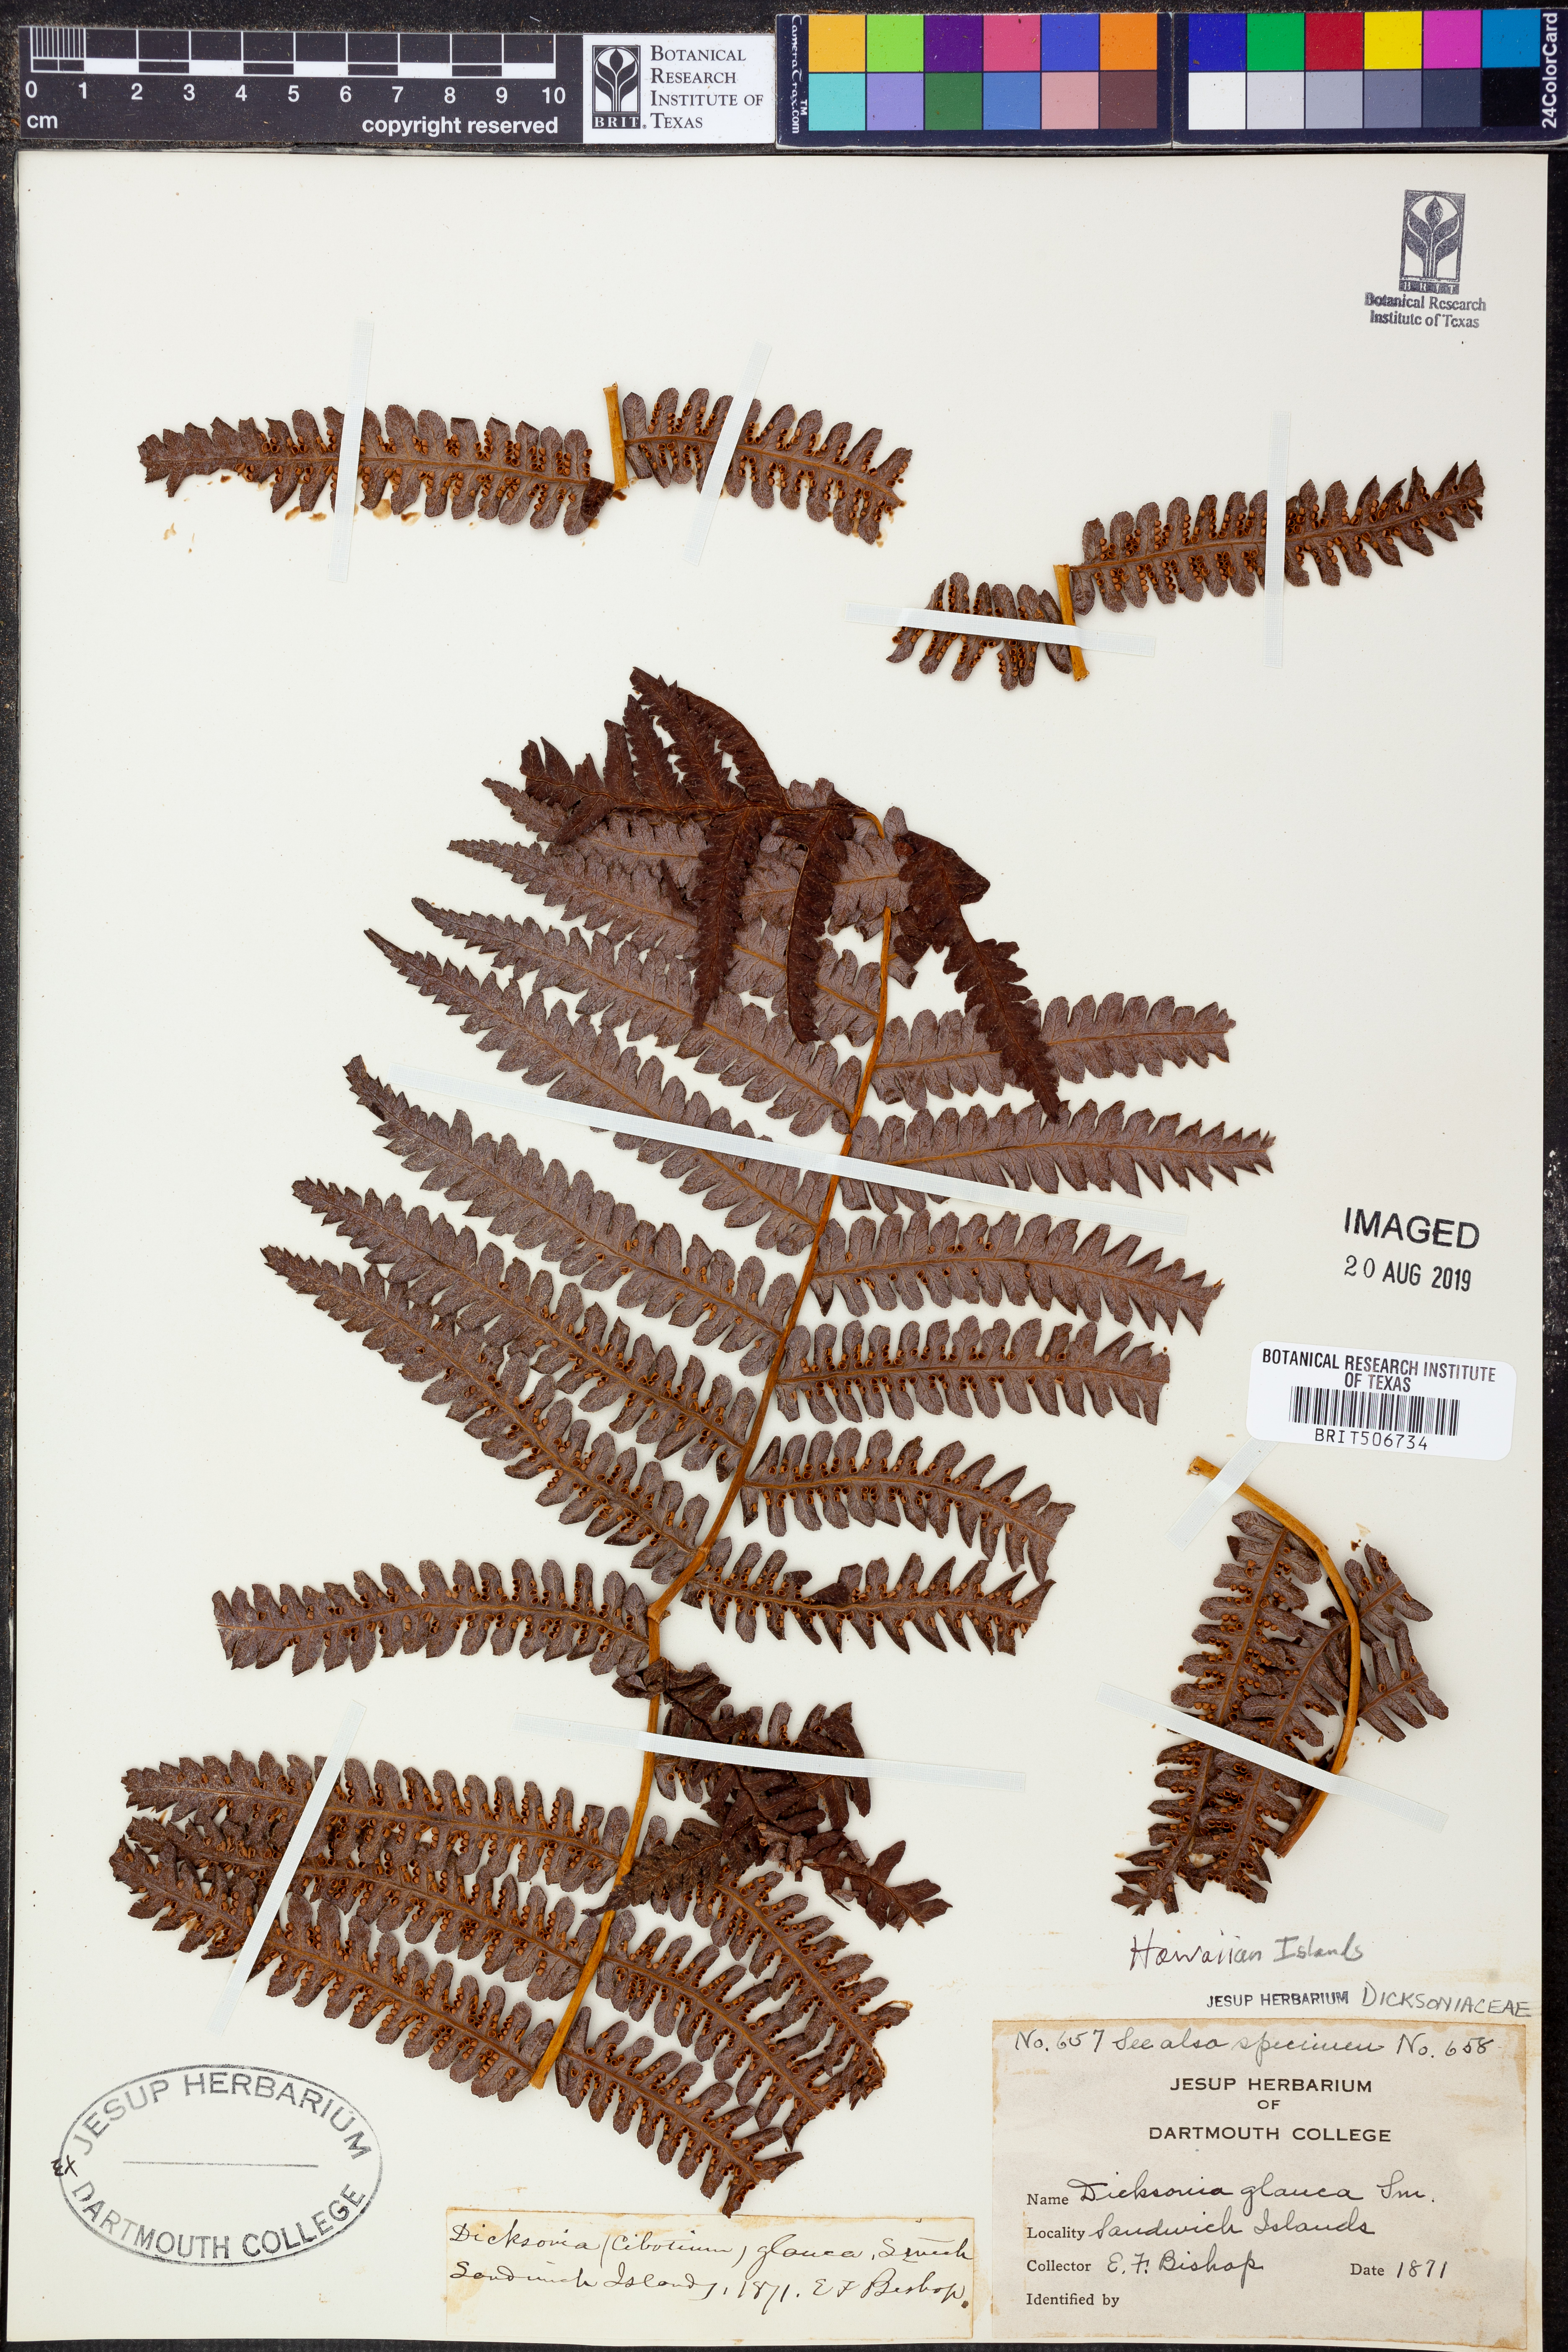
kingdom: Plantae
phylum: Tracheophyta
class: Polypodiopsida
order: Cyatheales
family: Cibotiaceae
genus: Cibotium
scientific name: Cibotium glaucum
